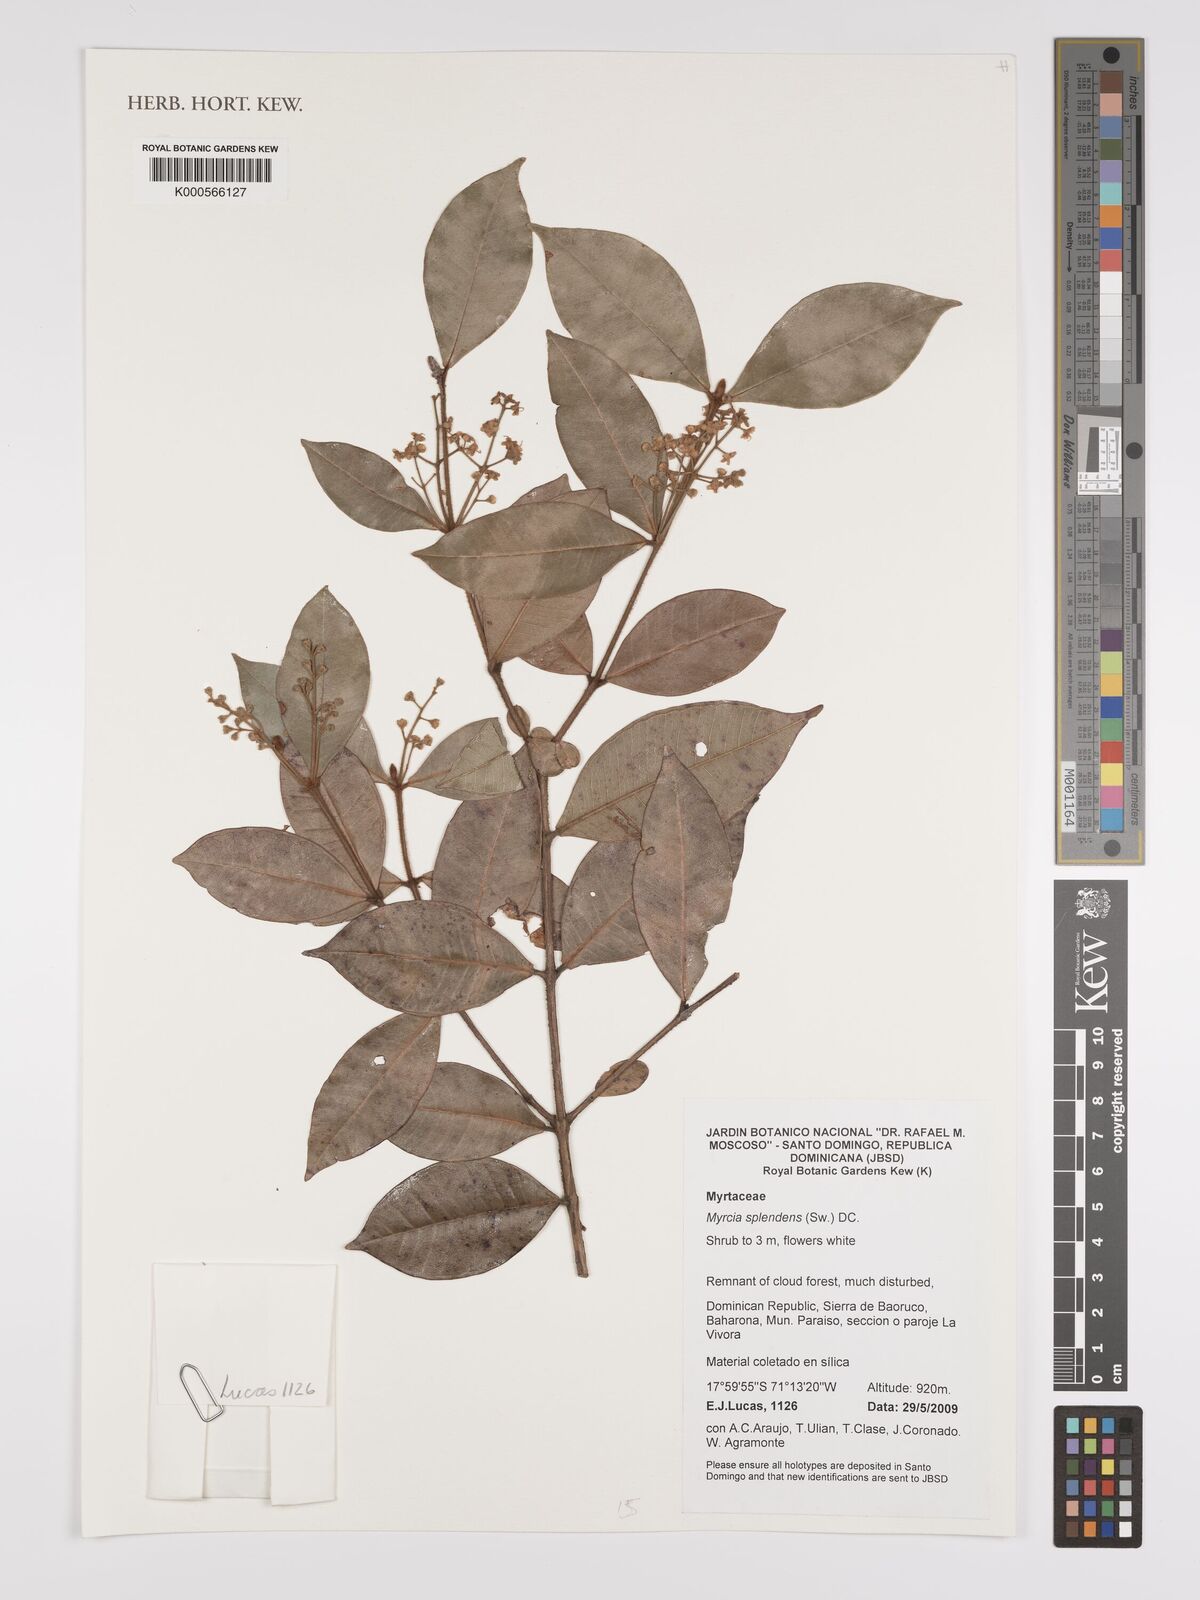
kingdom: Plantae
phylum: Tracheophyta
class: Magnoliopsida
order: Myrtales
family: Myrtaceae
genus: Myrcia
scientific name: Myrcia splendens
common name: Surinam cherry
